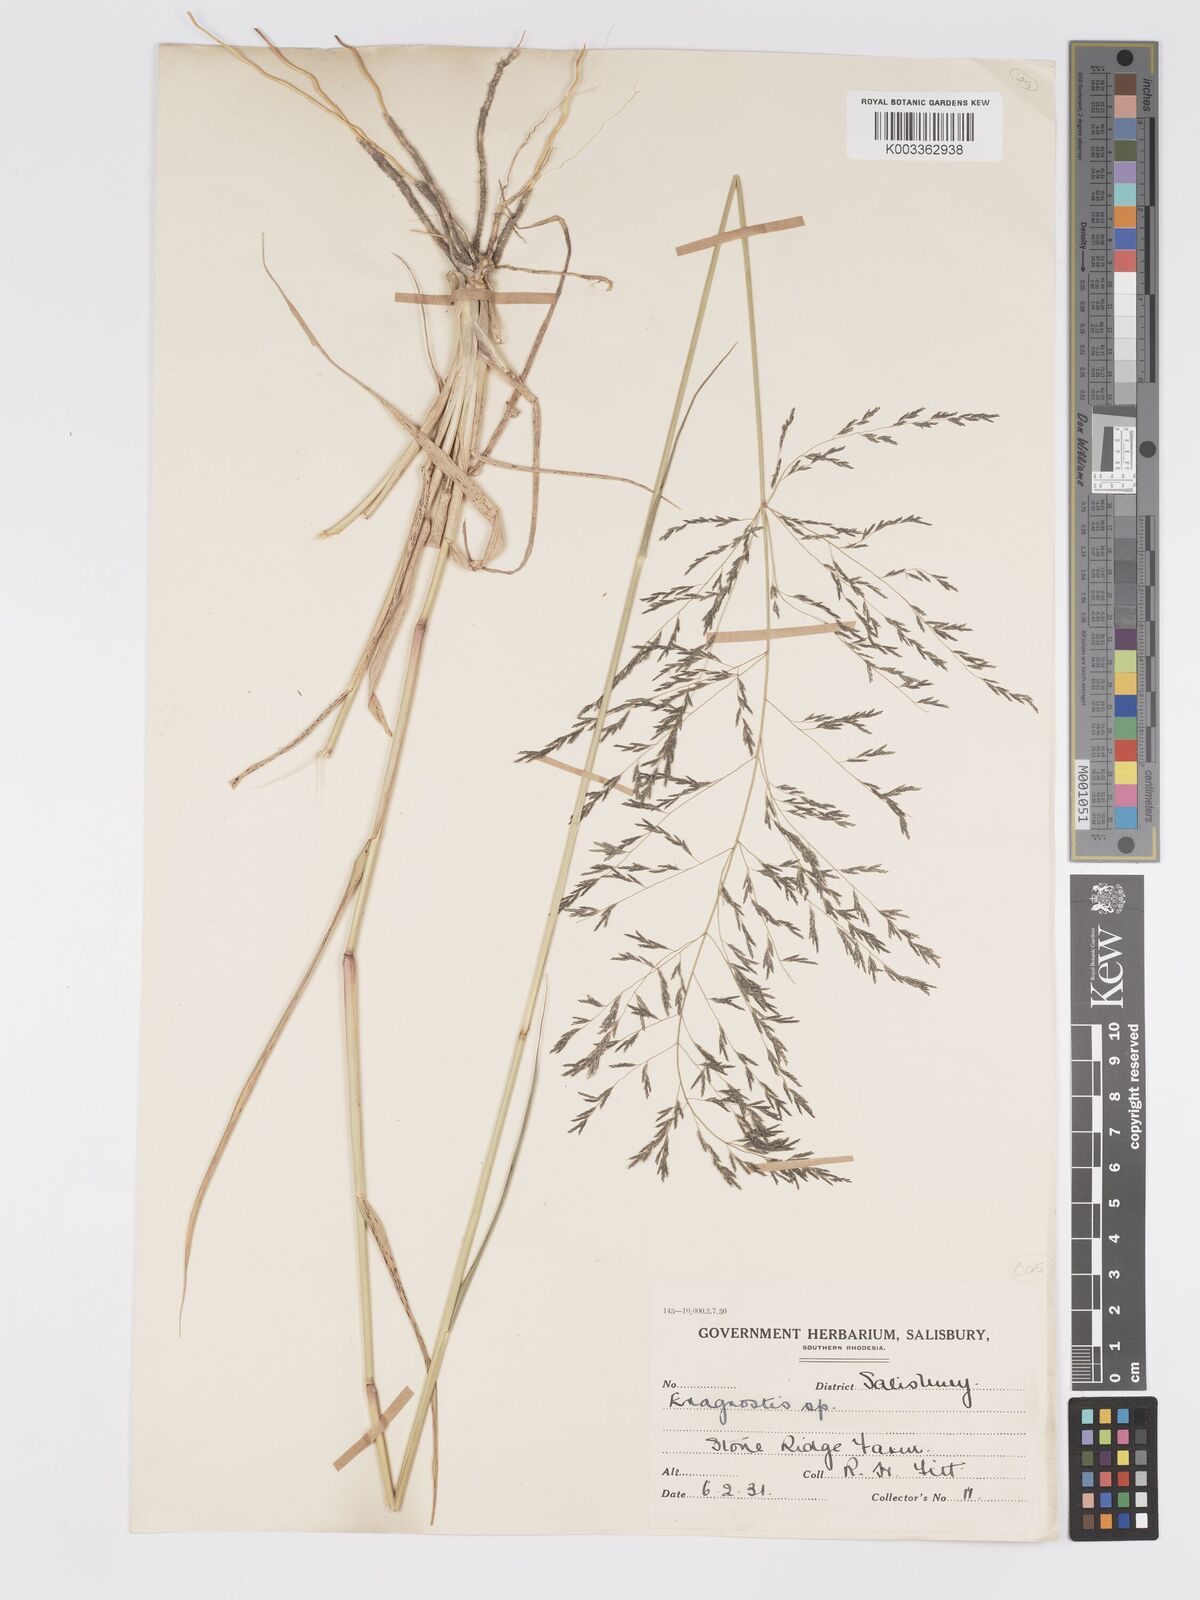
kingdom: Plantae
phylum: Tracheophyta
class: Liliopsida
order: Poales
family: Poaceae
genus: Eragrostis
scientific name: Eragrostis cylindriflora
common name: Cylinderflower lovegrass
